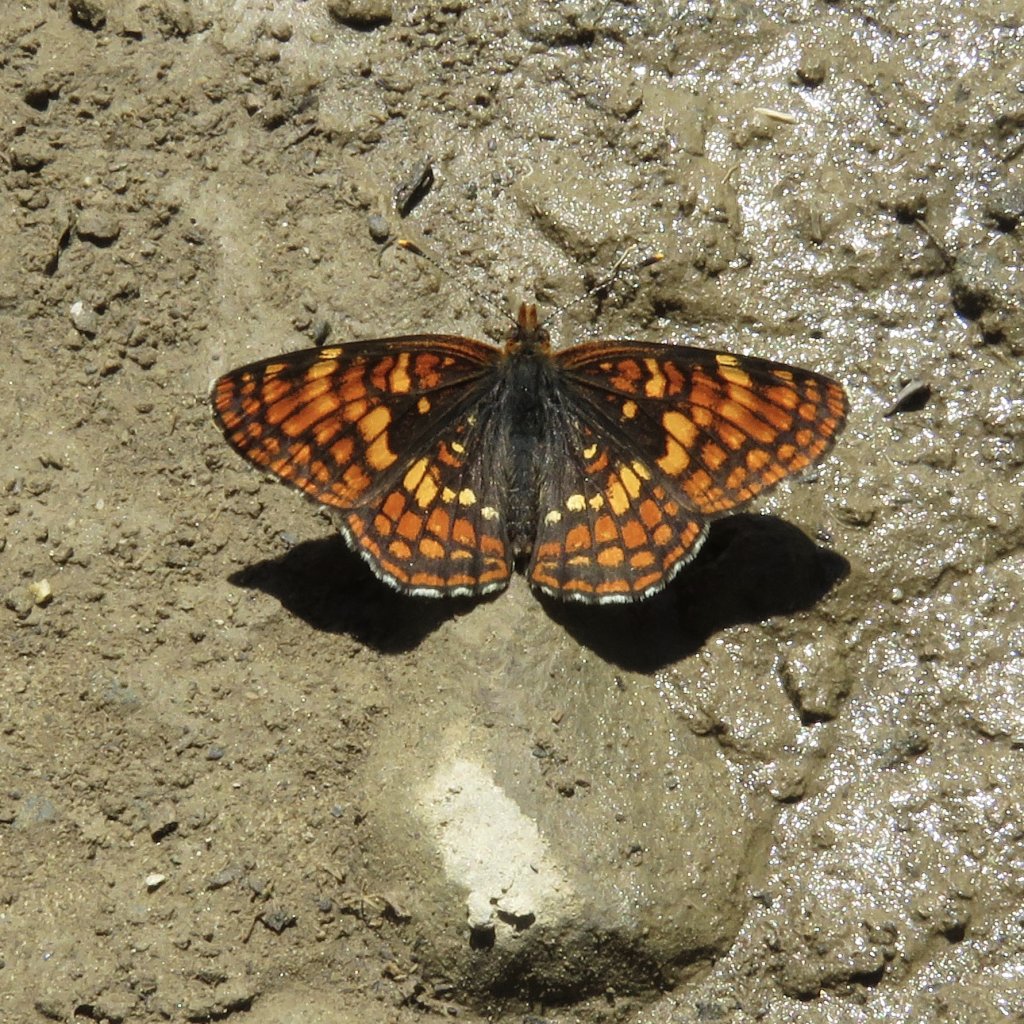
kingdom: Animalia
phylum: Arthropoda
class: Insecta
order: Lepidoptera
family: Nymphalidae
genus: Chlosyne
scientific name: Chlosyne hoffmanni
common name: Hoffmann's Checkerspot
